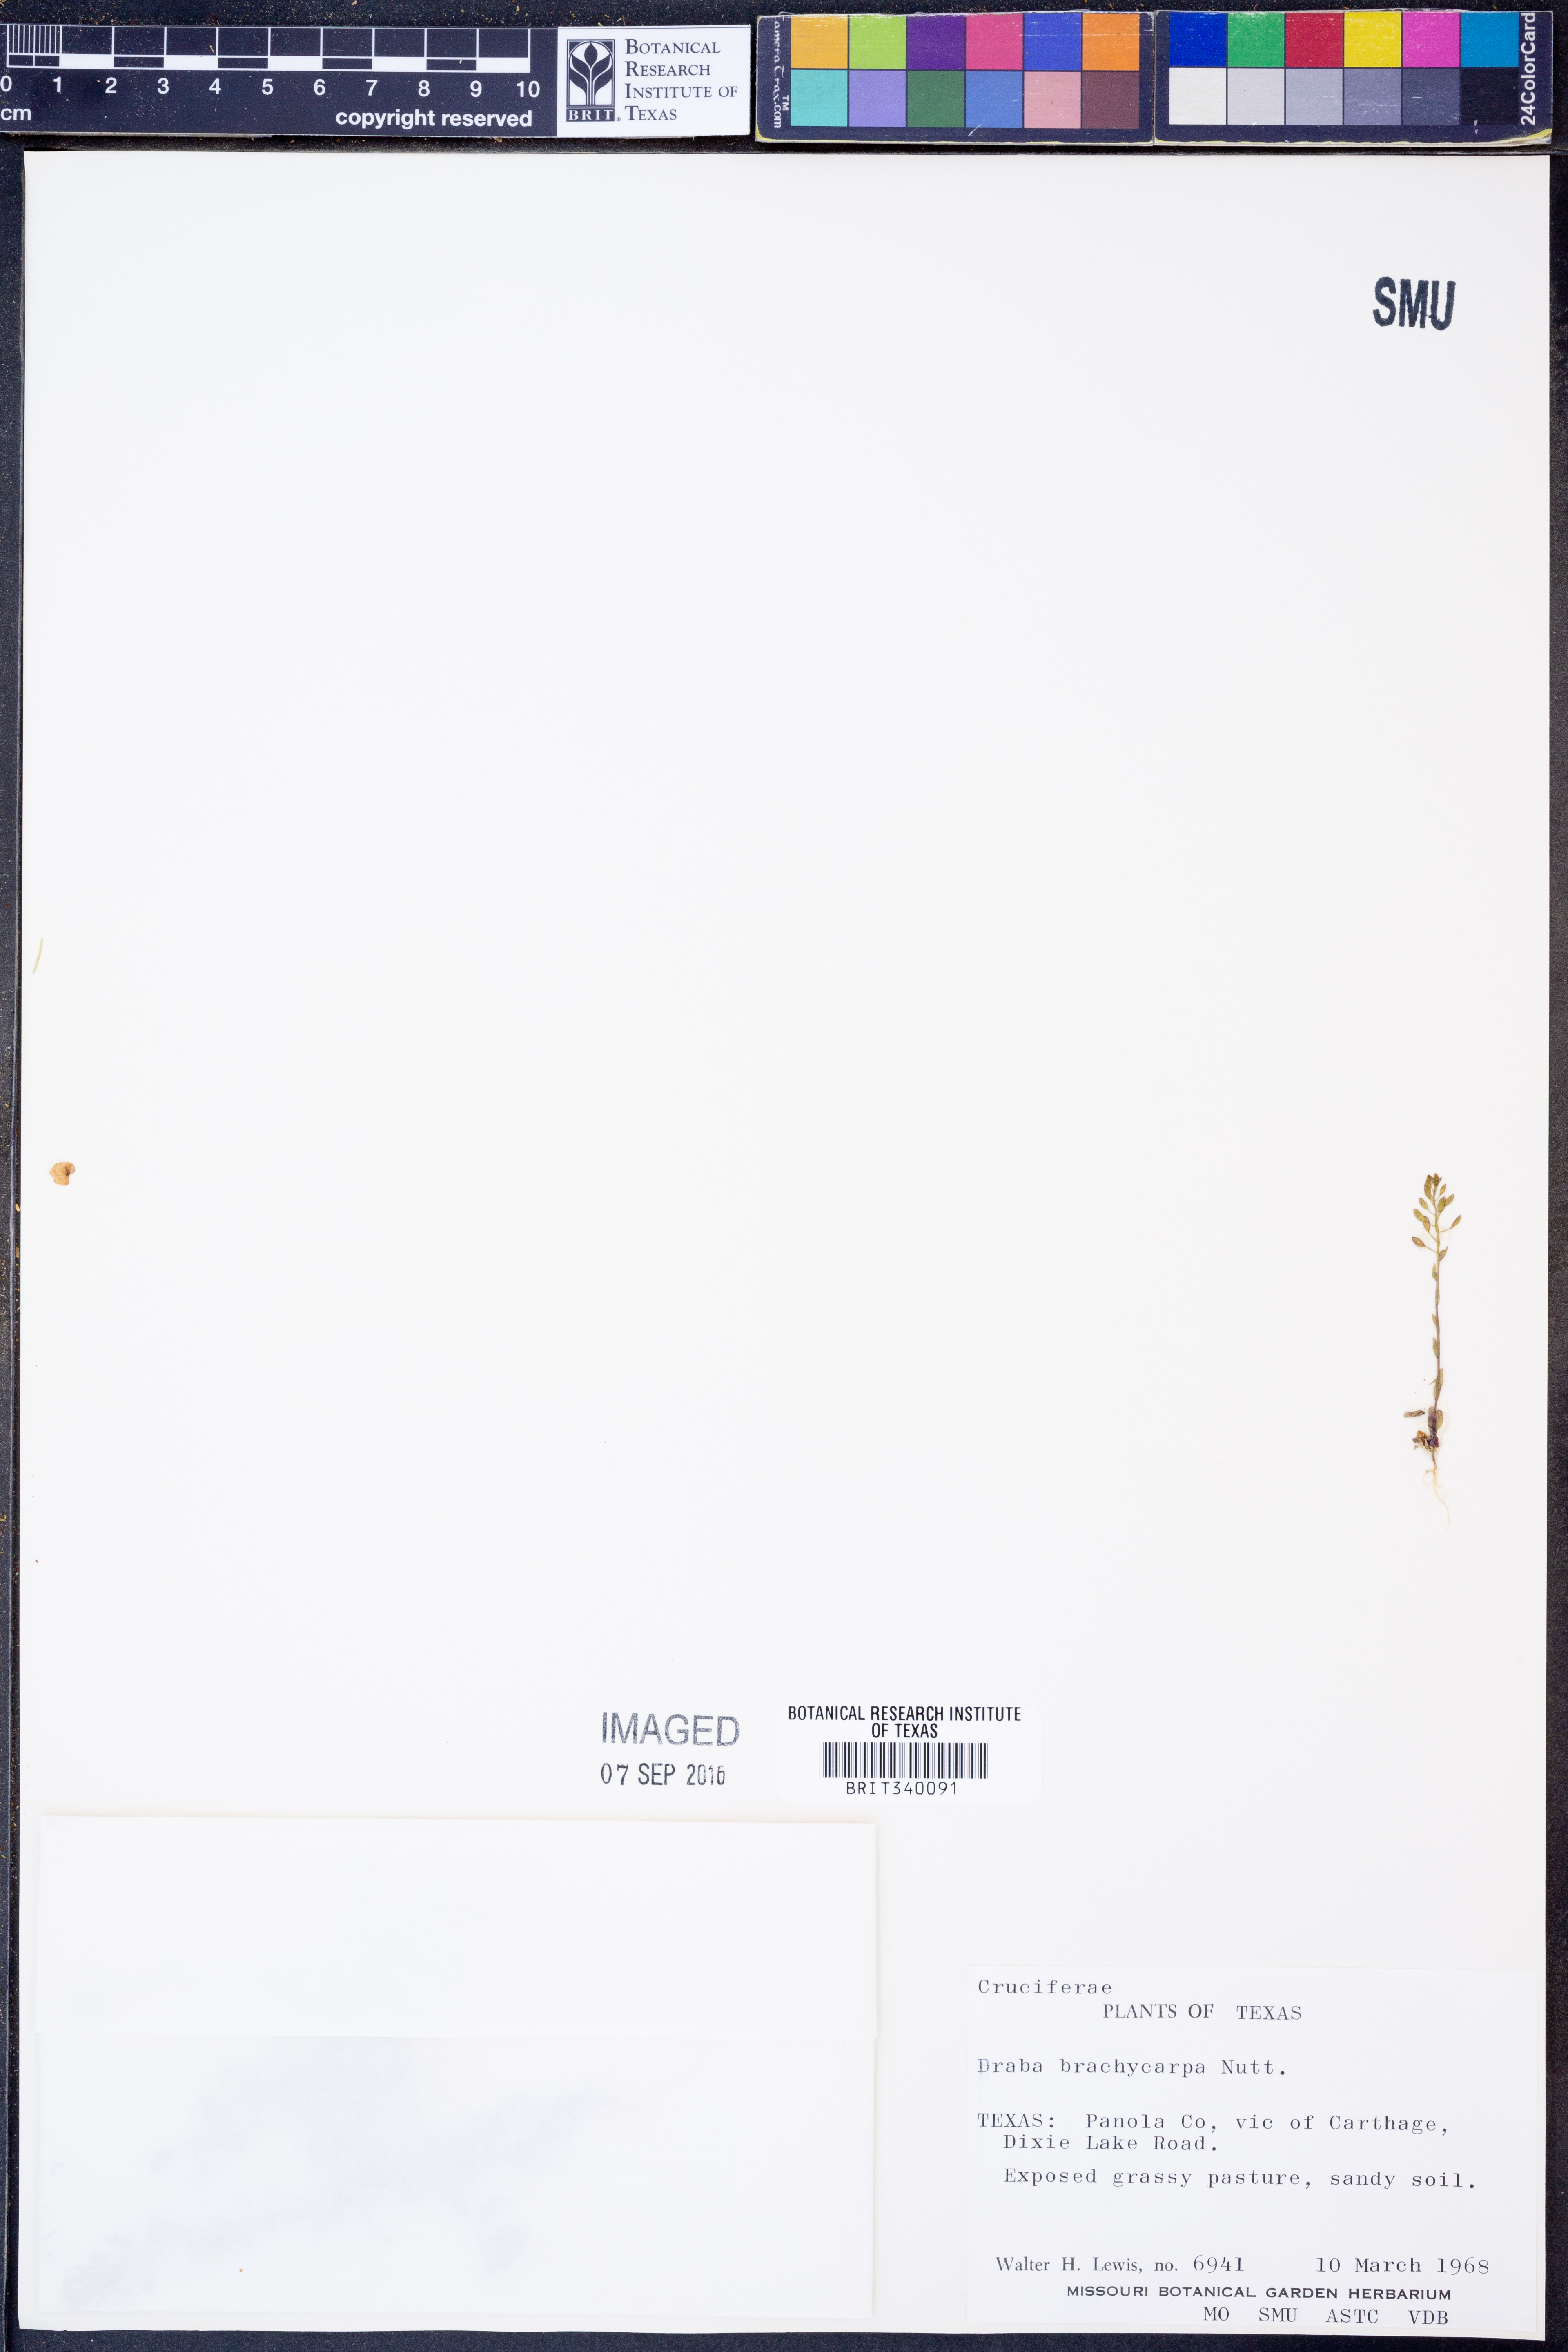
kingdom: Plantae
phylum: Tracheophyta
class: Magnoliopsida
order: Brassicales
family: Brassicaceae
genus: Abdra
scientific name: Abdra brachycarpa
